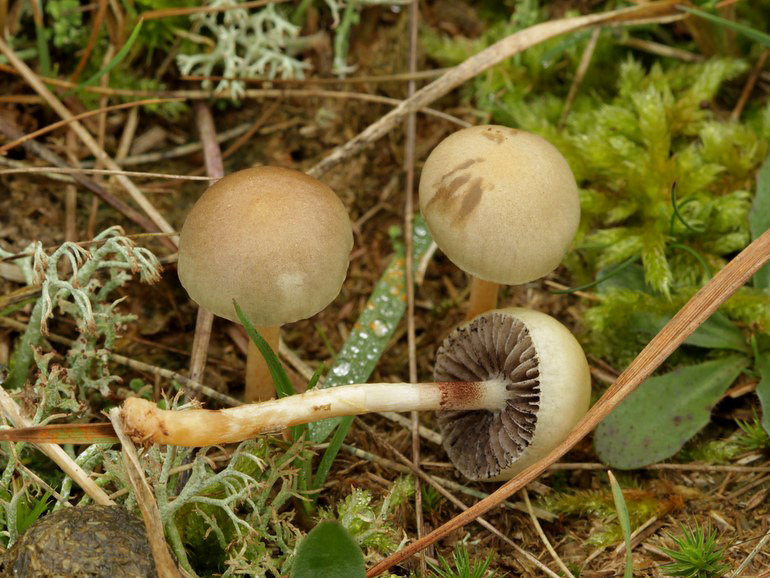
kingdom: Fungi
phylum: Basidiomycota
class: Agaricomycetes
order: Agaricales
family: Strophariaceae
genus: Protostropharia
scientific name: Protostropharia semiglobata
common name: halvkugleformet bredblad
